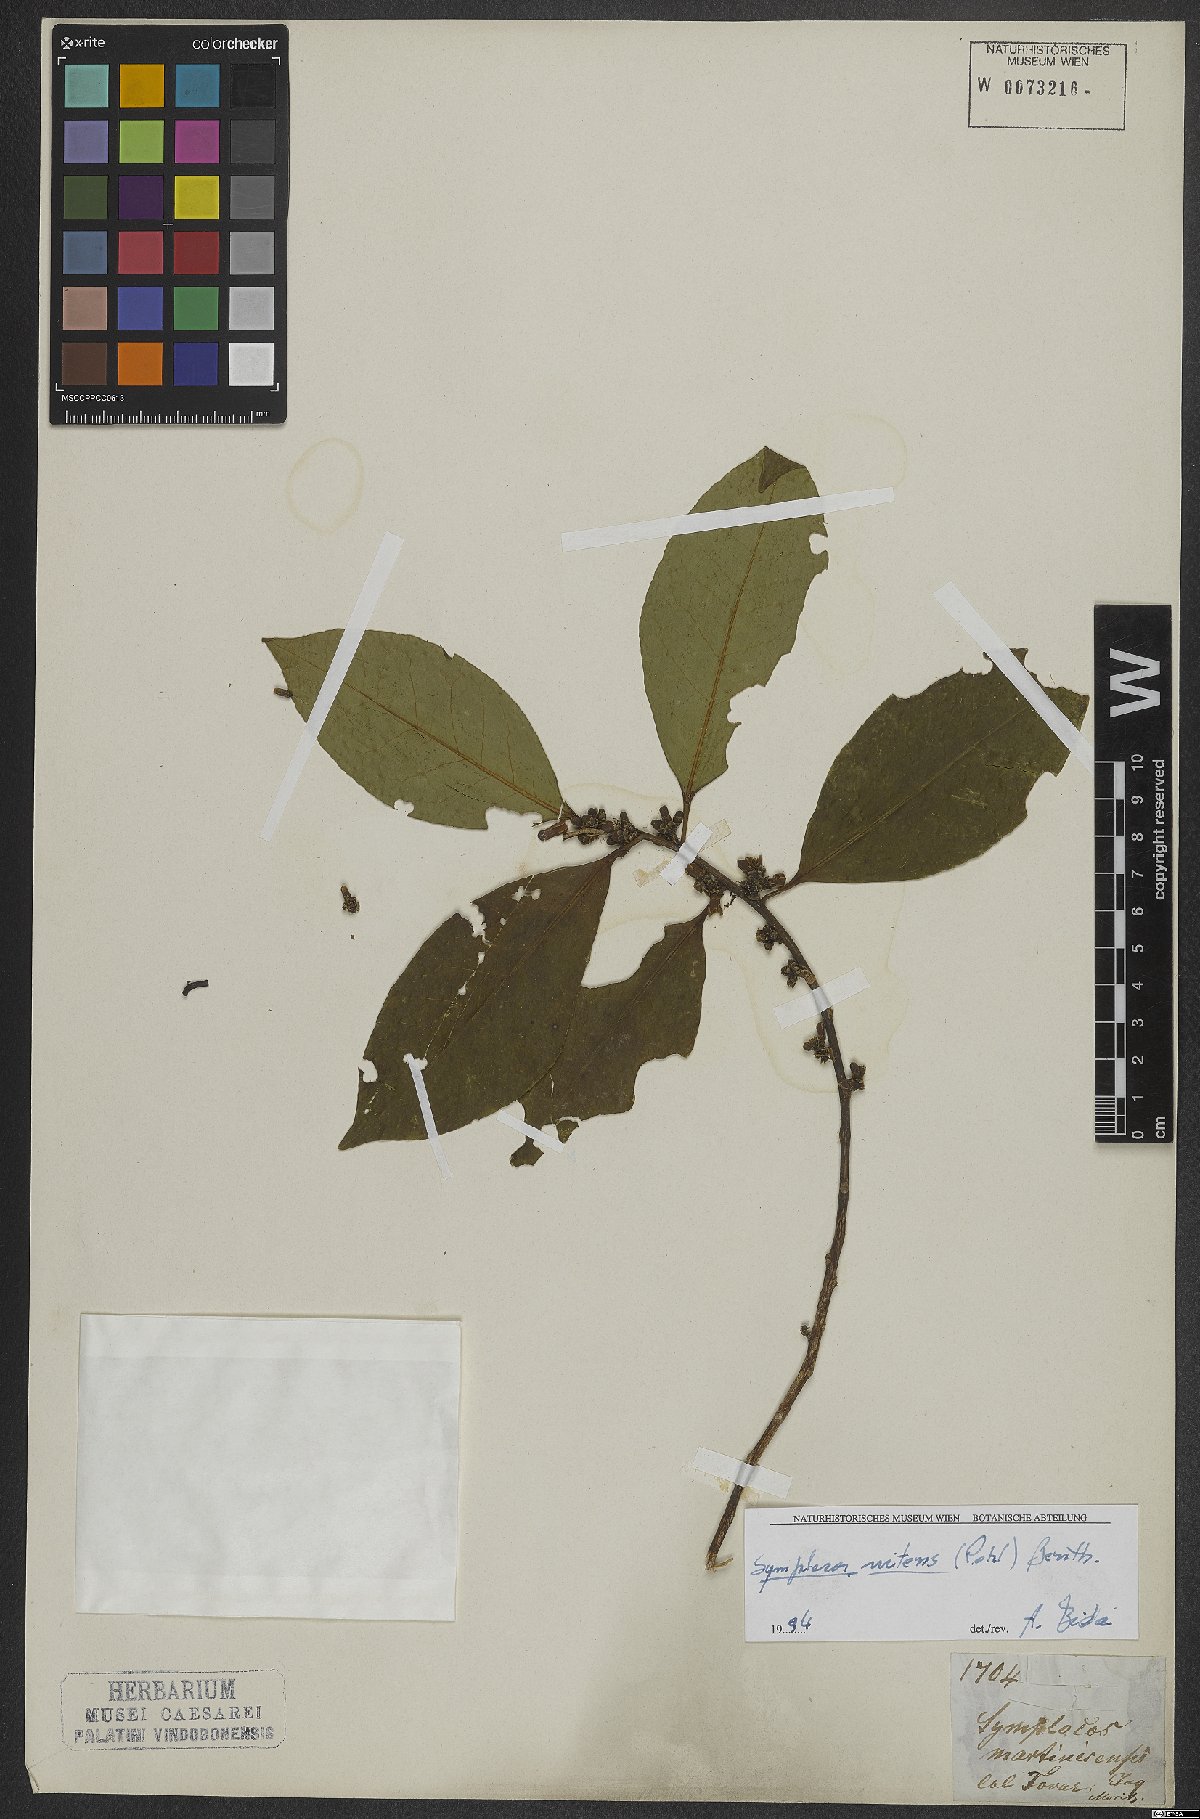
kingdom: Plantae
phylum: Tracheophyta
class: Magnoliopsida
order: Ericales
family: Symplocaceae
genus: Symplocos
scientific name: Symplocos nitens
